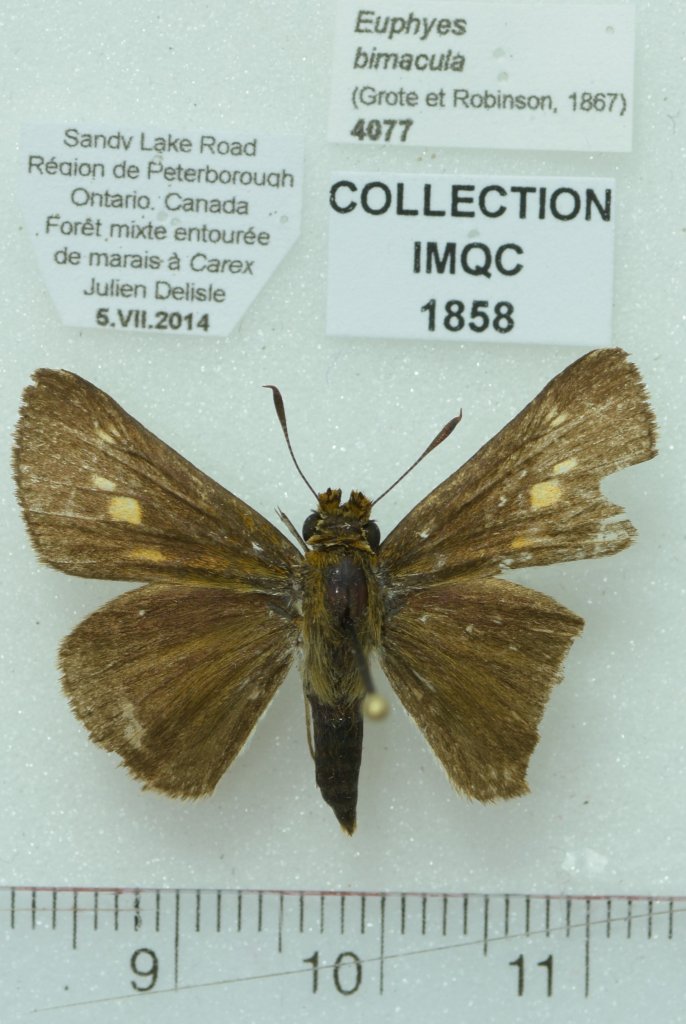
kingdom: Animalia
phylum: Arthropoda
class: Insecta
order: Lepidoptera
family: Hesperiidae
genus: Euphyes
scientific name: Euphyes bimacula
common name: Two-spotted Skipper
